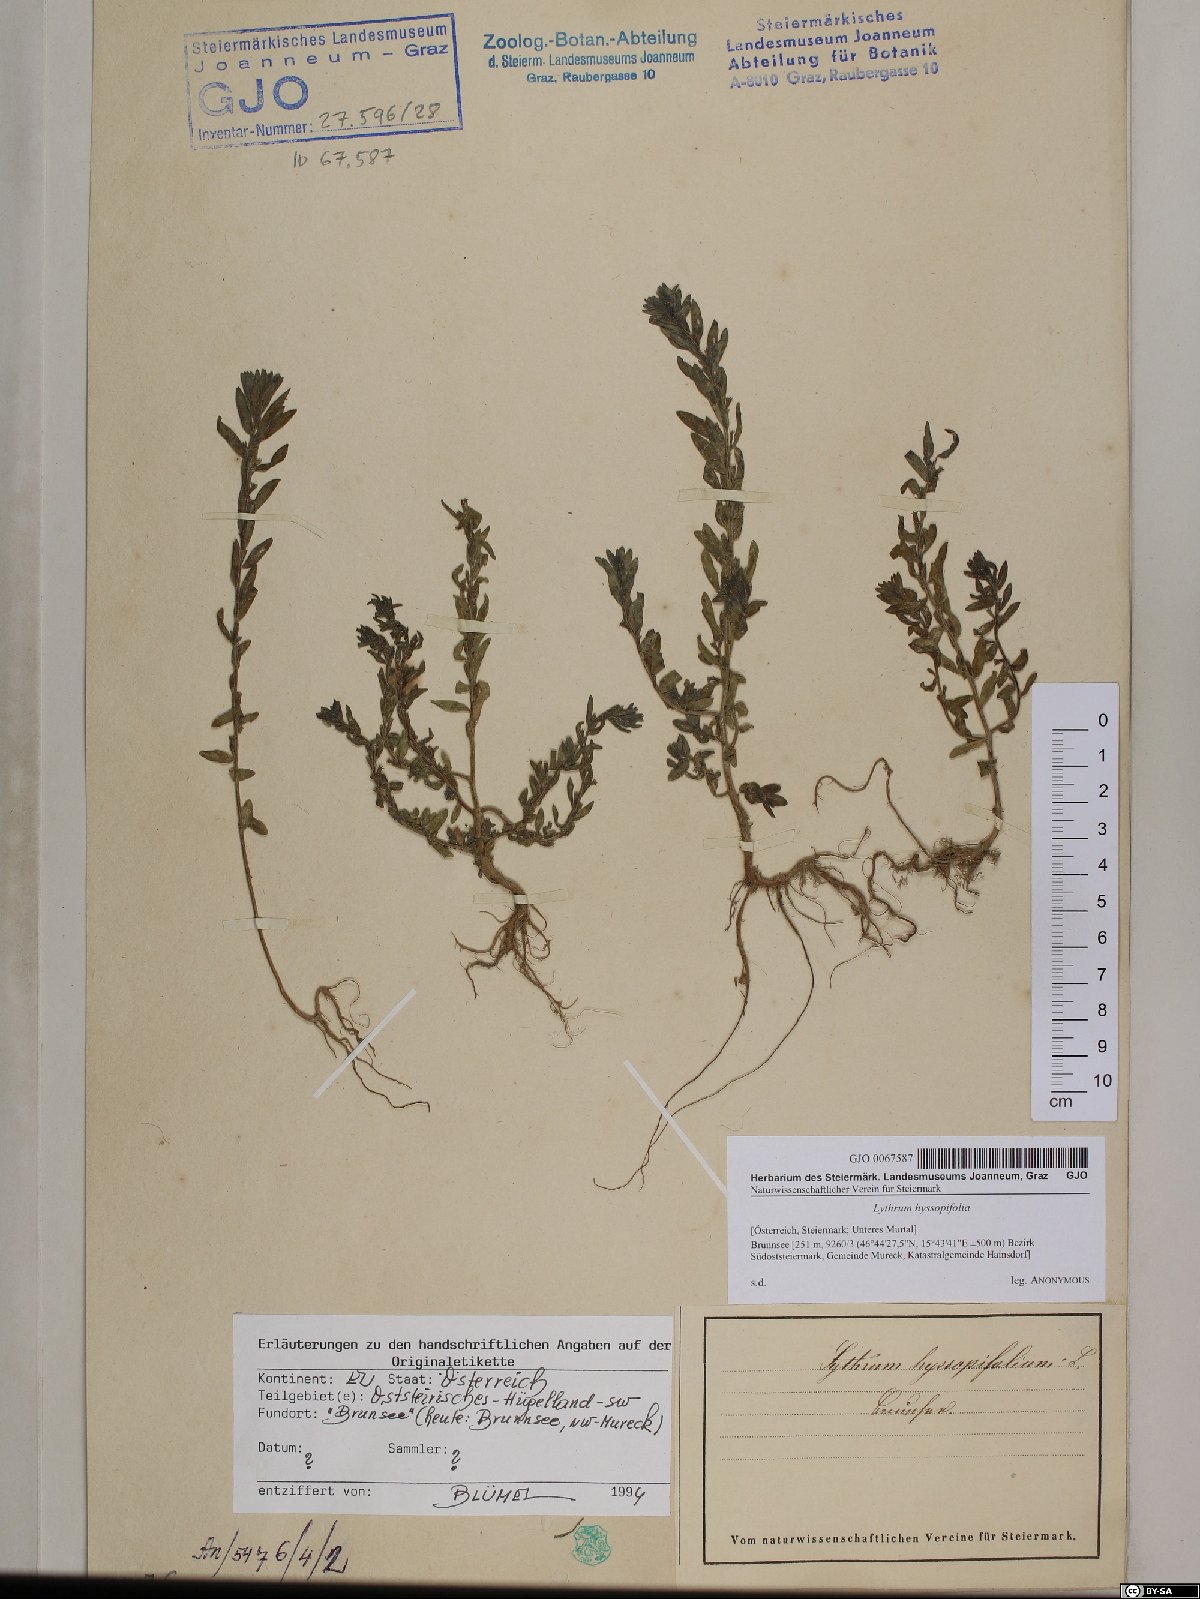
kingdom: Plantae
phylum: Tracheophyta
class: Magnoliopsida
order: Myrtales
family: Lythraceae
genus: Lythrum
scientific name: Lythrum hyssopifolia
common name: Grass-poly
